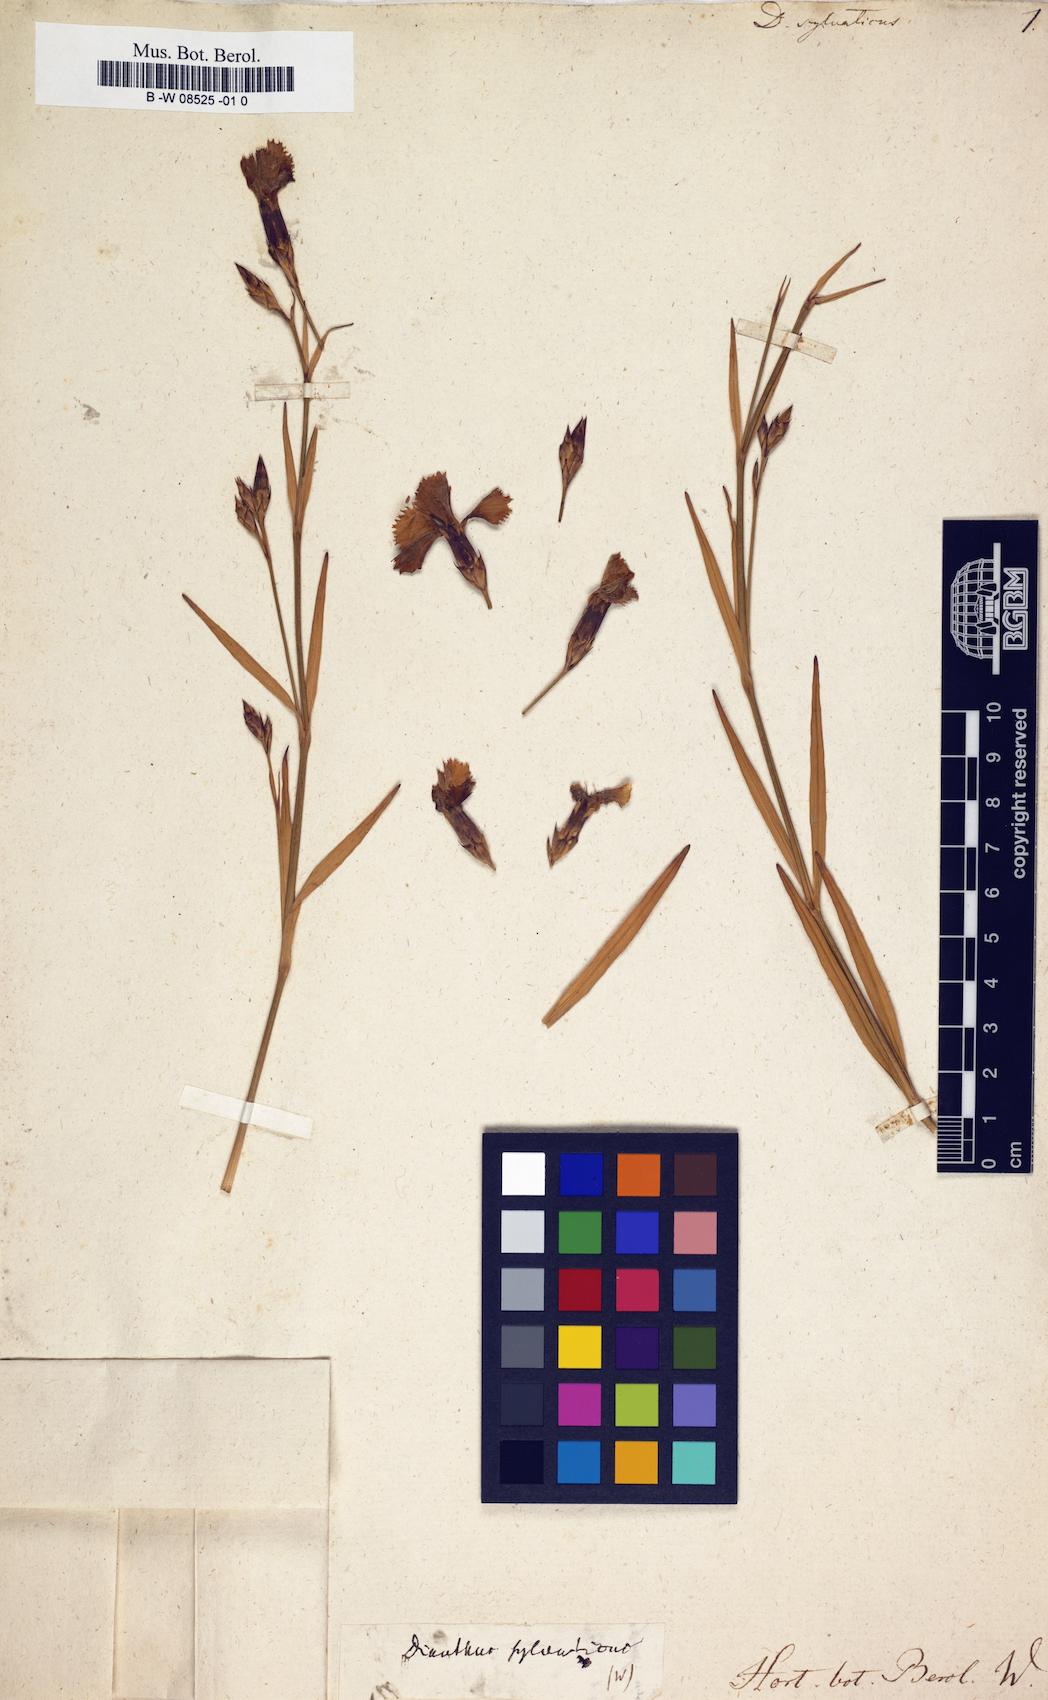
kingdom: Plantae
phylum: Tracheophyta
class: Magnoliopsida
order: Caryophyllales
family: Caryophyllaceae
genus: Dianthus
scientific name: Dianthus sylvaticus
